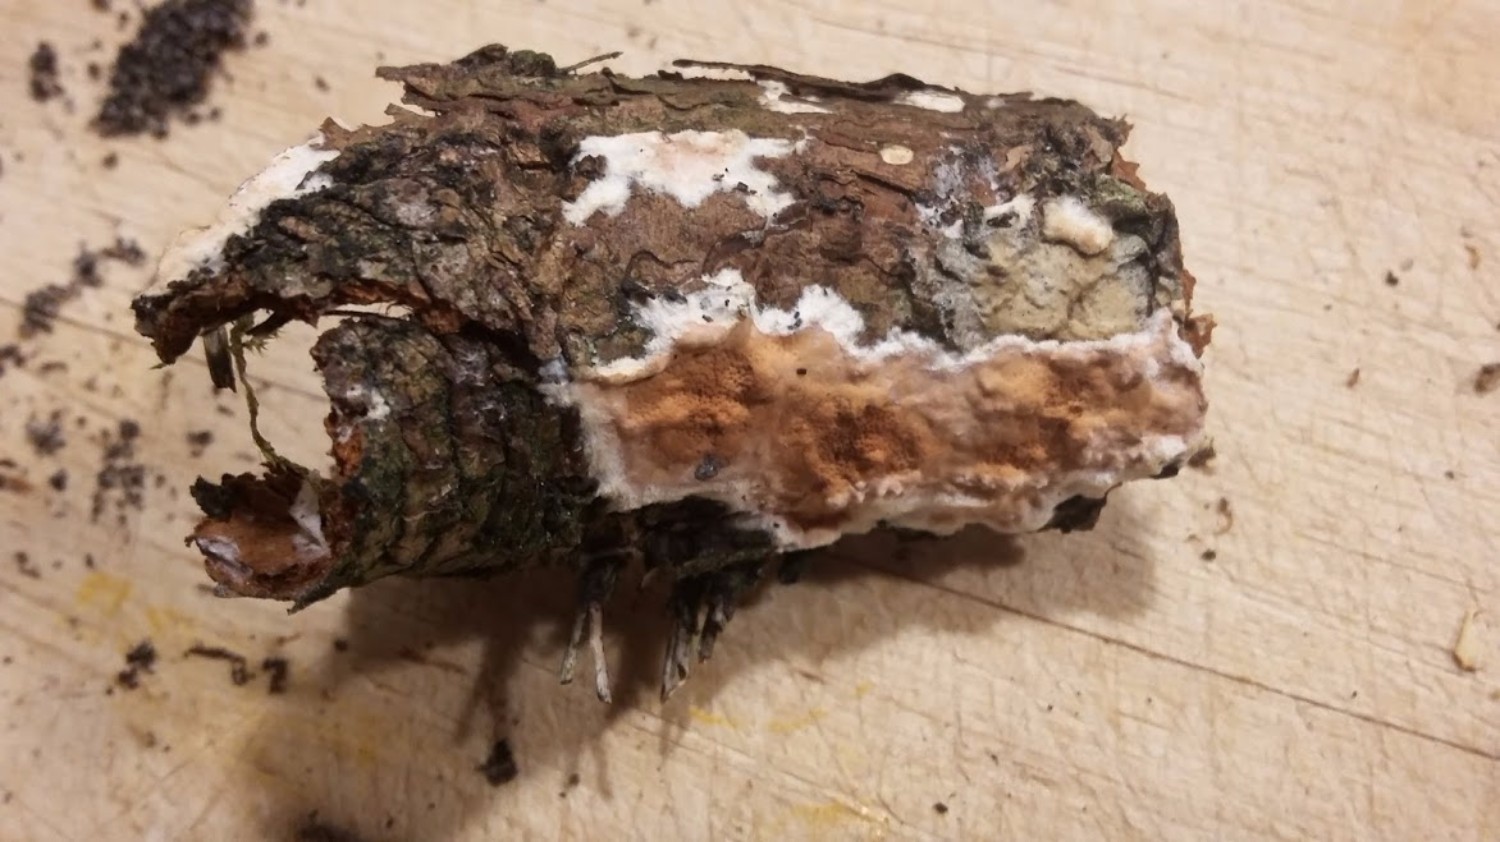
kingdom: Fungi
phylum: Basidiomycota
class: Agaricomycetes
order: Polyporales
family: Irpicaceae
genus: Meruliopsis
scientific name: Meruliopsis taxicola
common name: purpurbrun foldporesvamp
